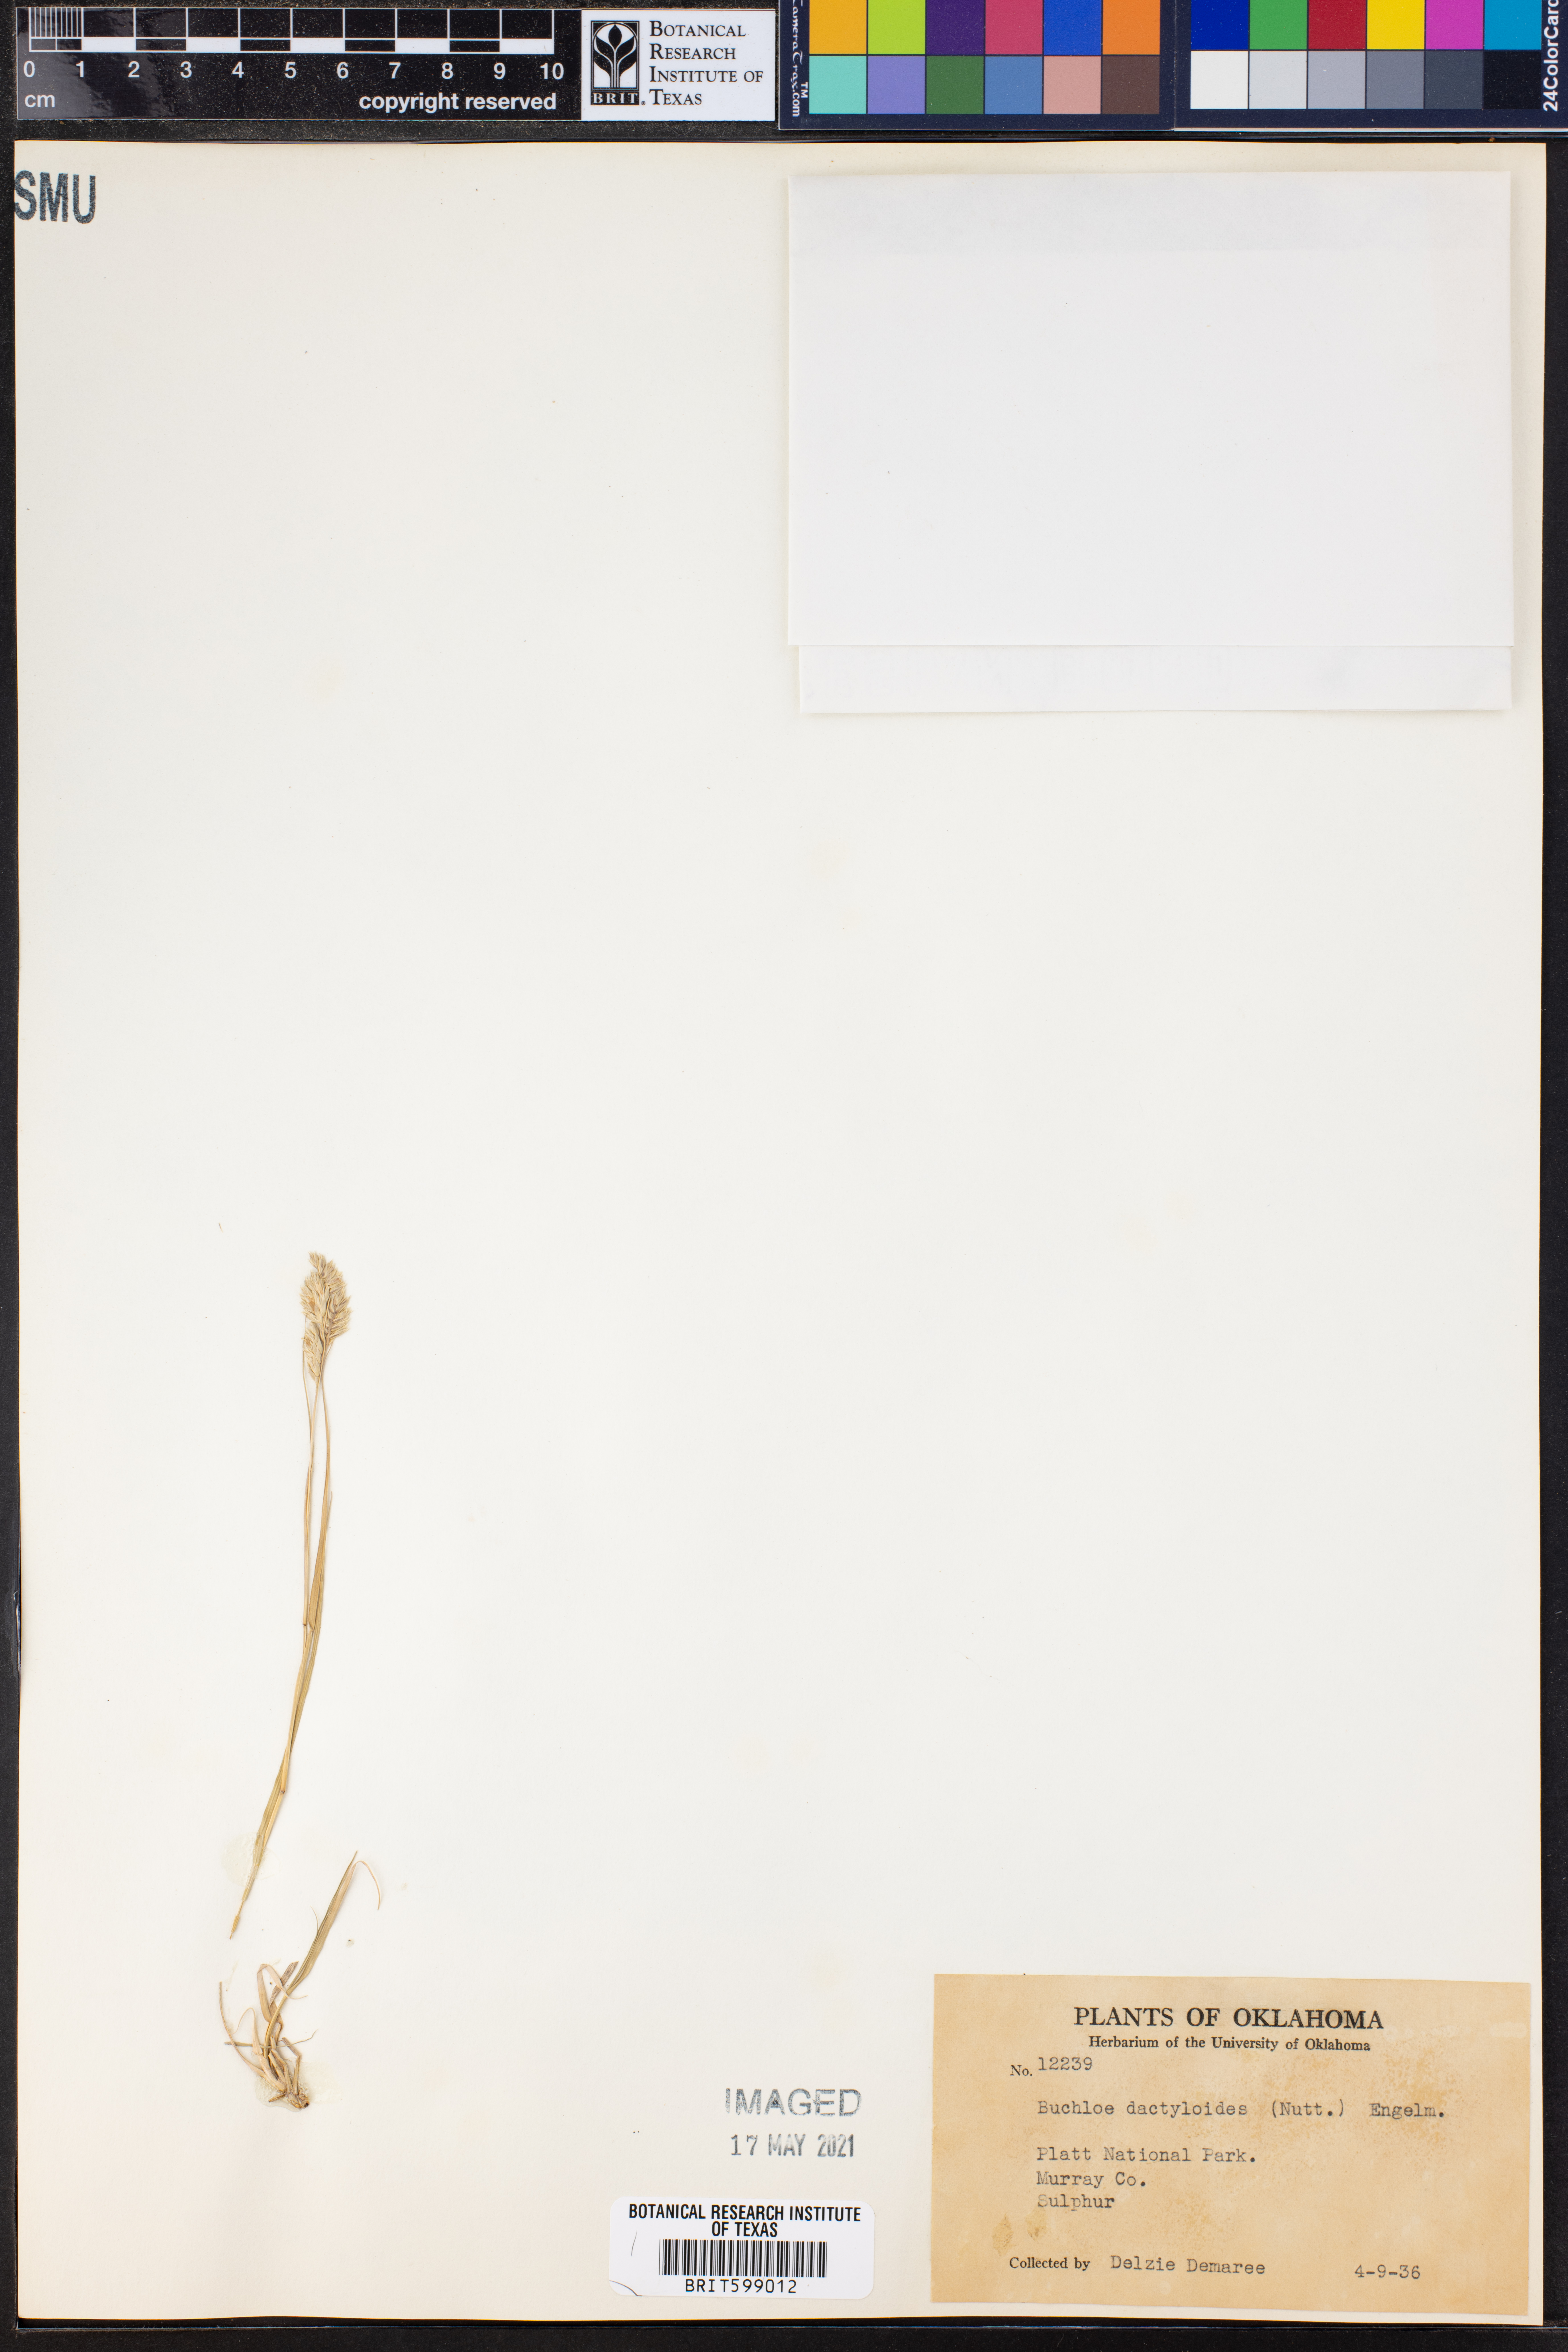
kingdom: Plantae
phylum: Tracheophyta
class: Liliopsida
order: Poales
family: Poaceae
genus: Bouteloua
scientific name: Bouteloua dactyloides
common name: Buffalo grass
